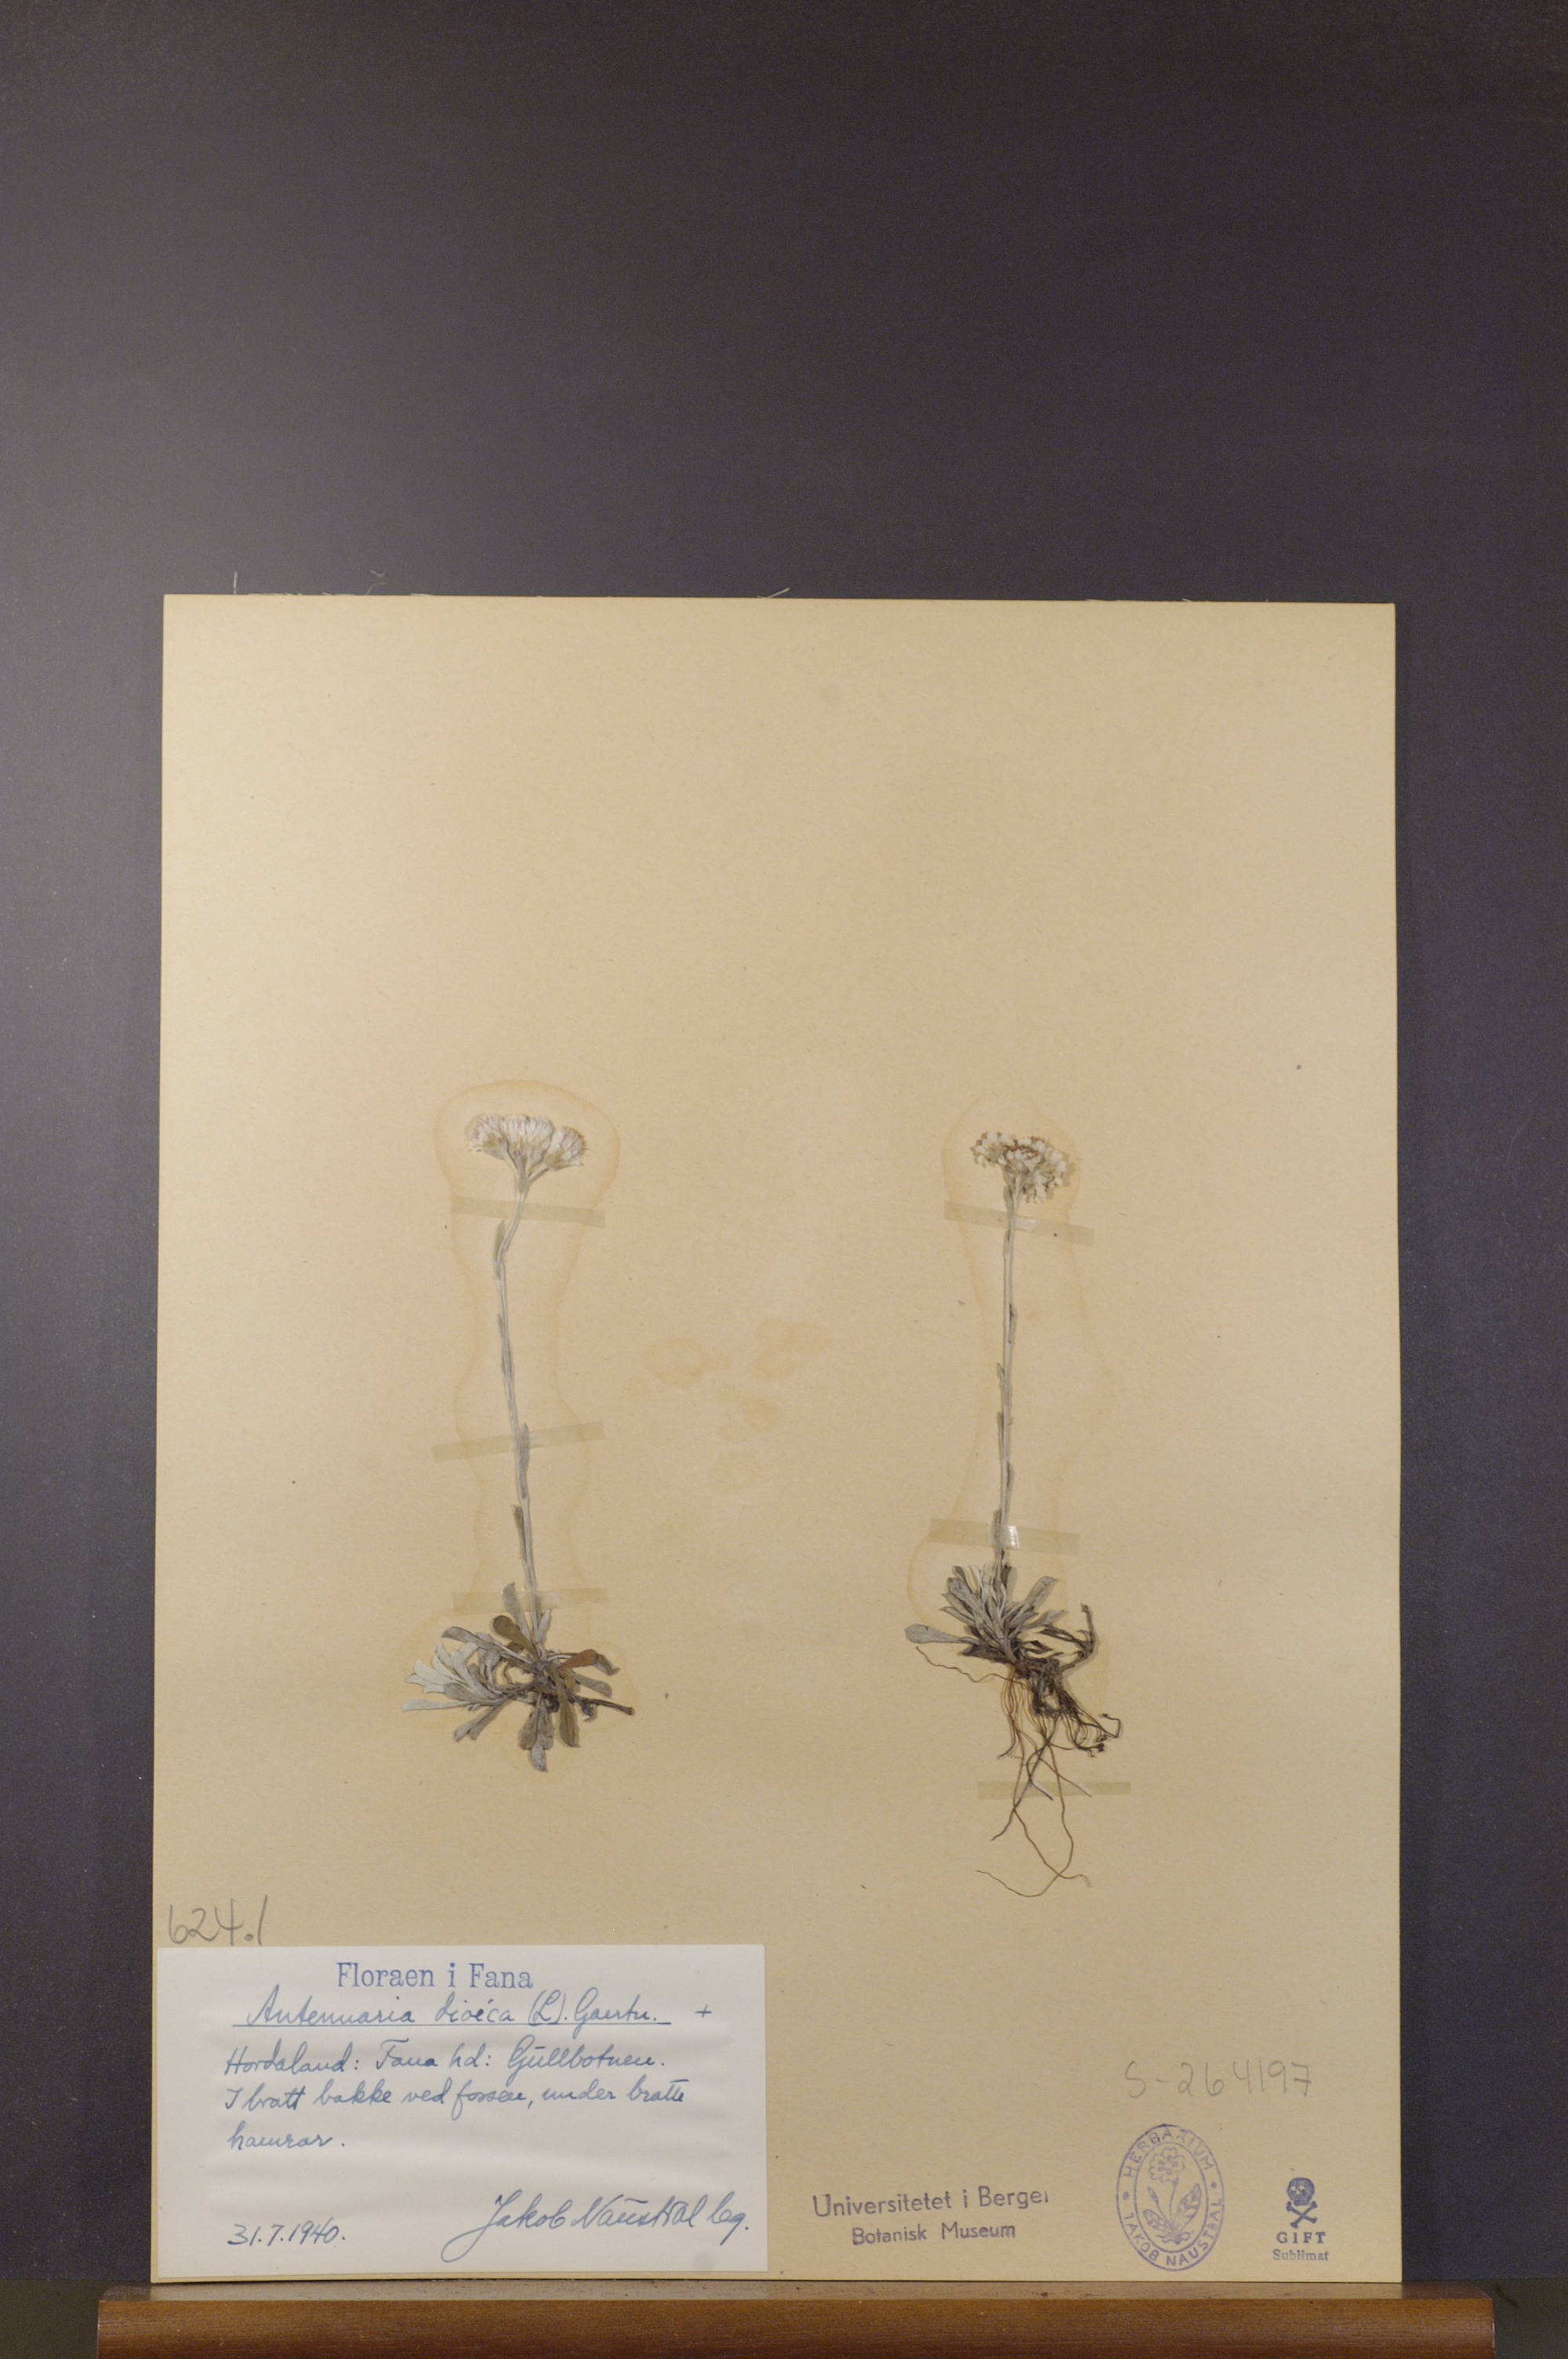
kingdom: Plantae
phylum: Tracheophyta
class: Magnoliopsida
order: Asterales
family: Asteraceae
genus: Antennaria
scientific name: Antennaria dioica
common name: Mountain everlasting
